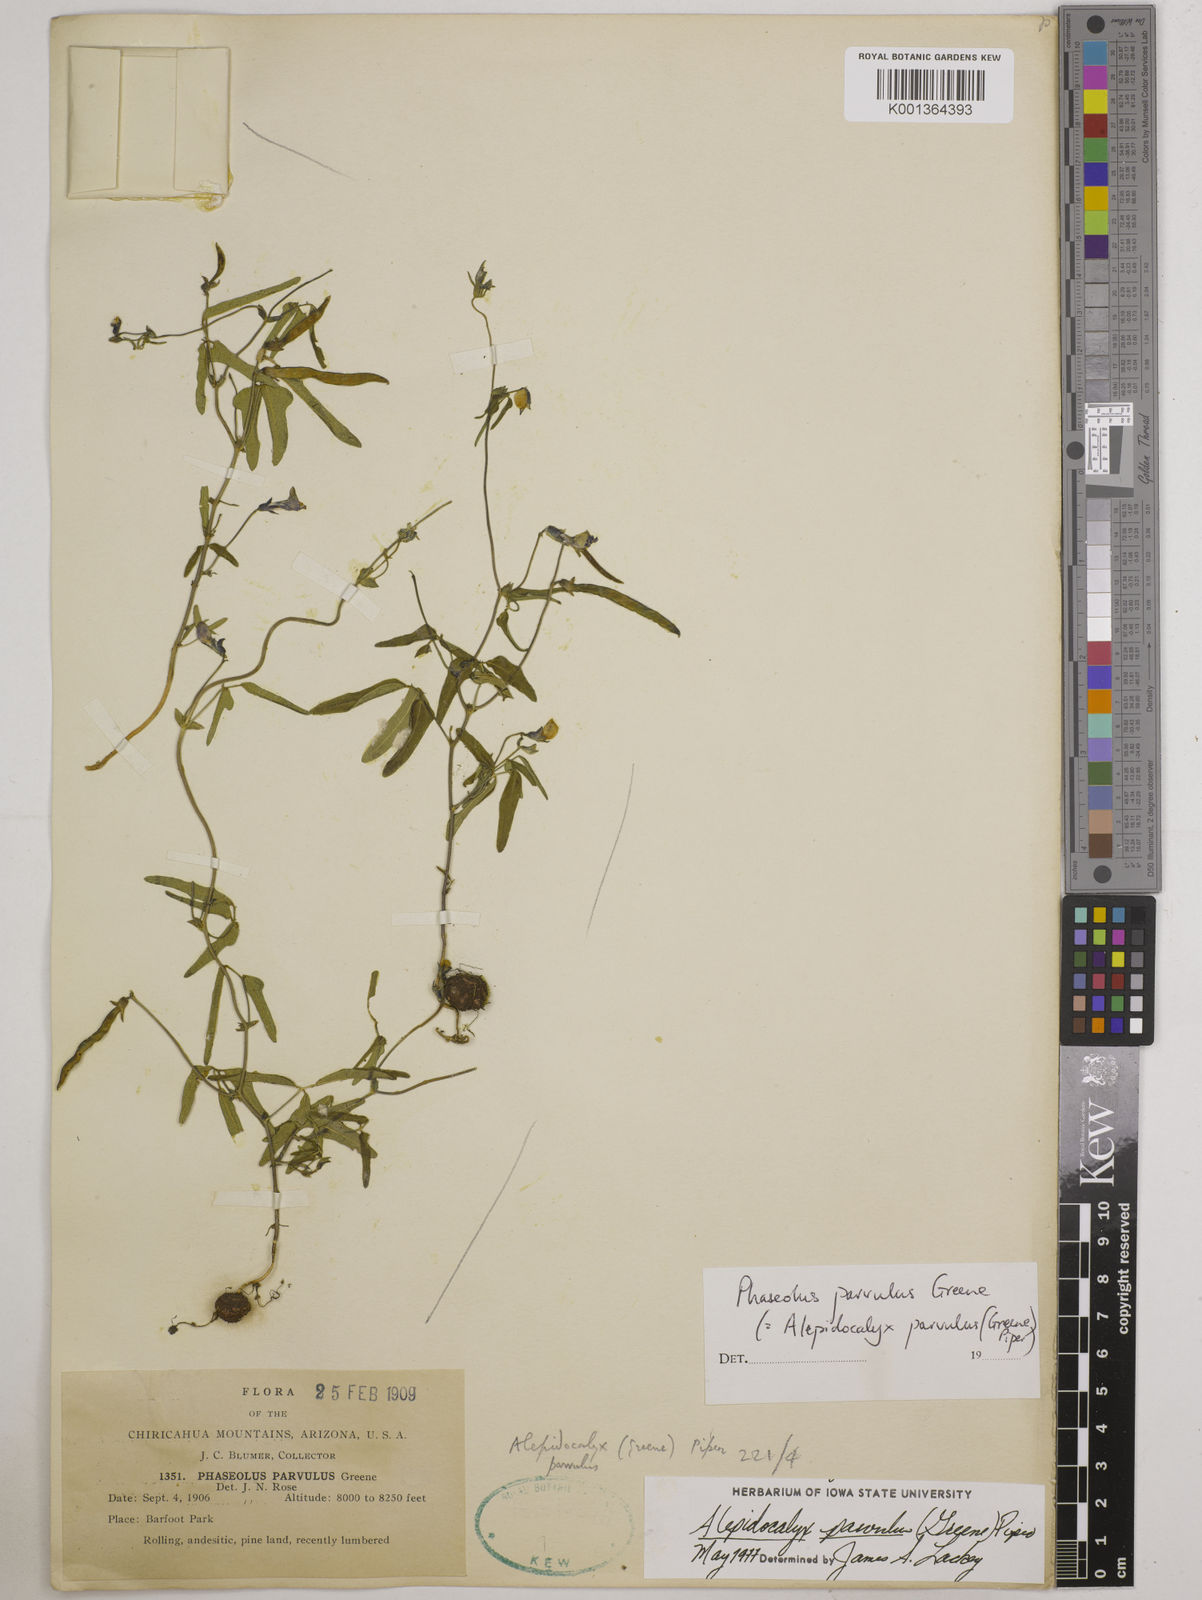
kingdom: Plantae
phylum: Tracheophyta
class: Magnoliopsida
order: Fabales
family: Fabaceae
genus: Phaseolus
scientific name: Phaseolus parvulus
